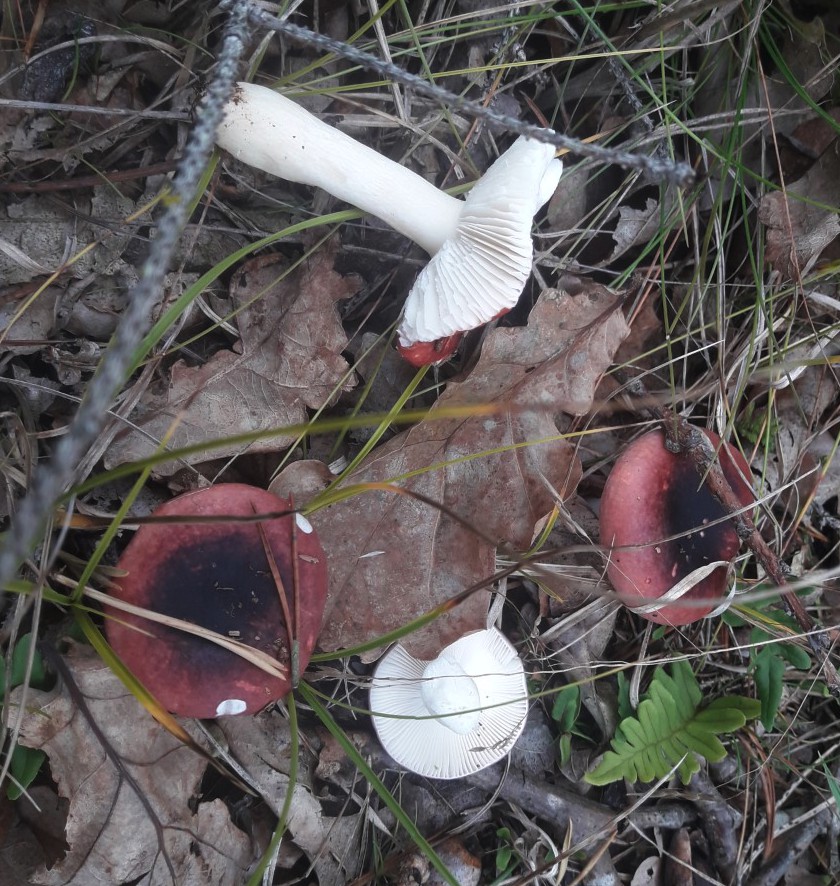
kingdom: Fungi
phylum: Basidiomycota
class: Agaricomycetes
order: Russulales
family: Russulaceae
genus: Russula
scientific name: Russula fragilis
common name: savbladet skørhat
